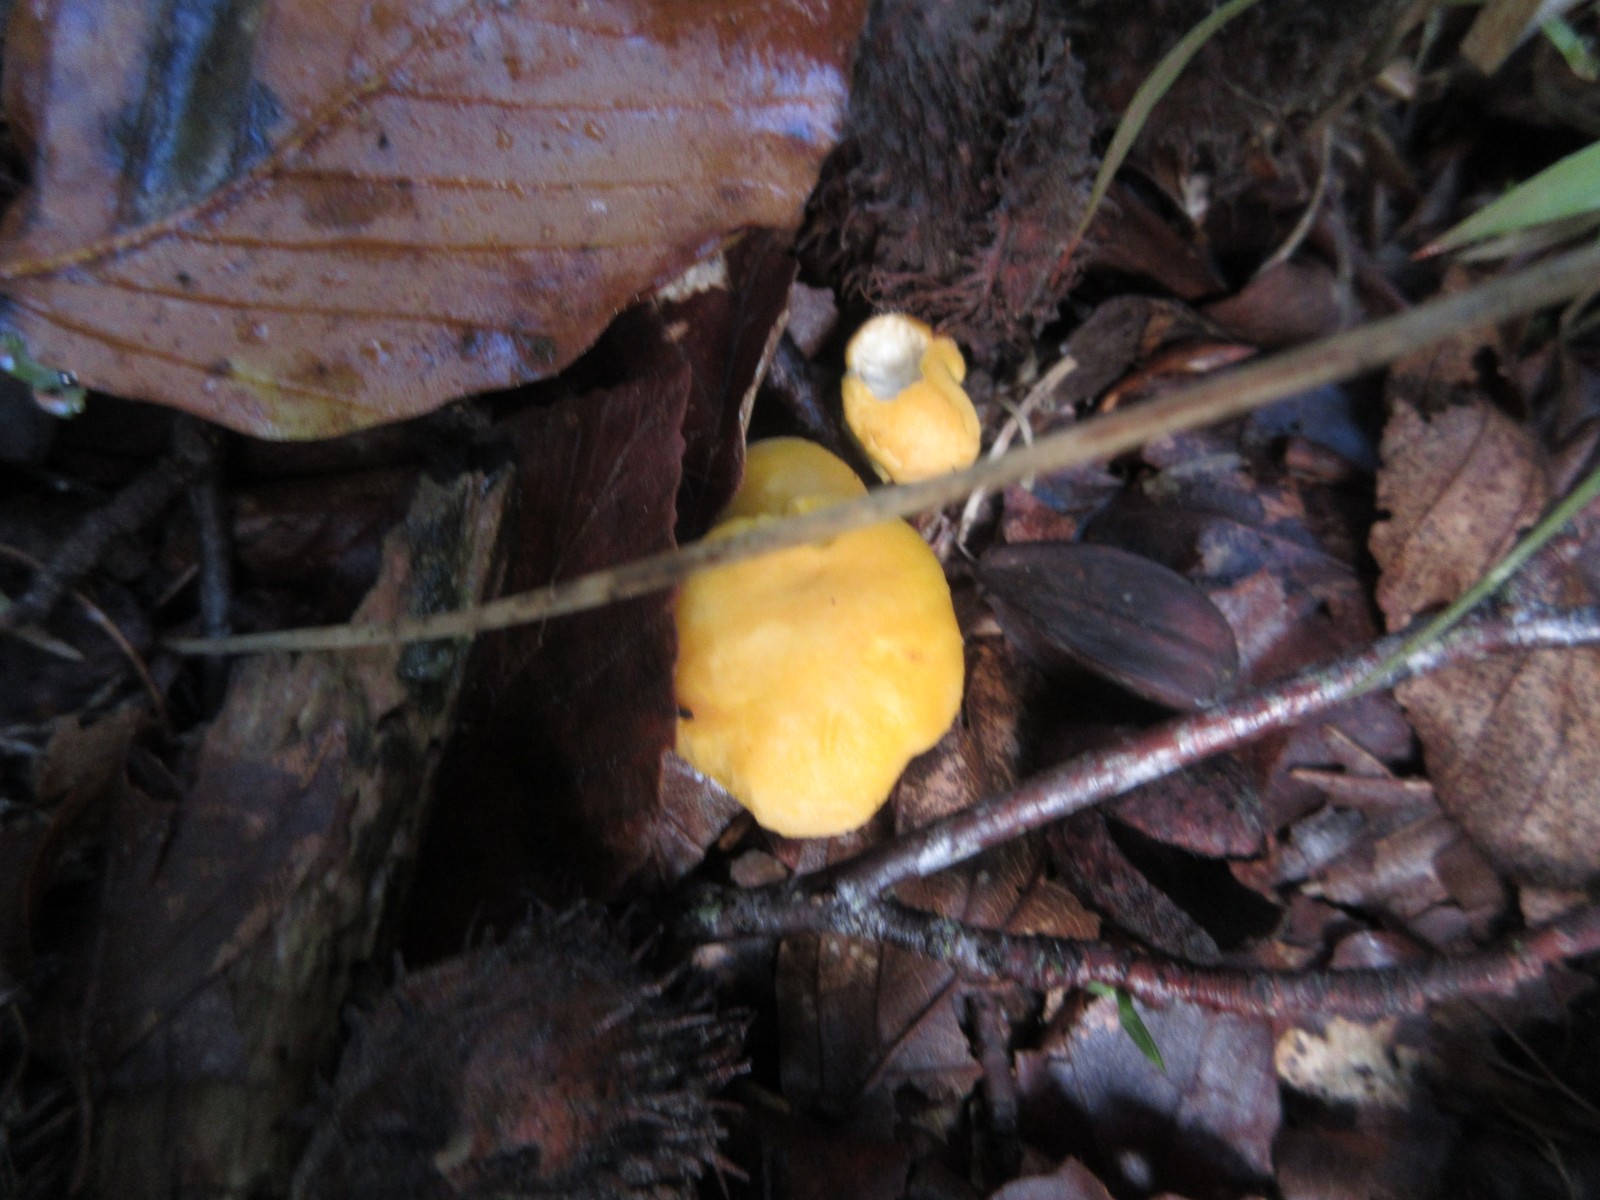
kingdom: Fungi
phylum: Basidiomycota
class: Agaricomycetes
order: Cantharellales
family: Hydnaceae
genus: Cantharellus
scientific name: Cantharellus cibarius
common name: almindelig kantarel
